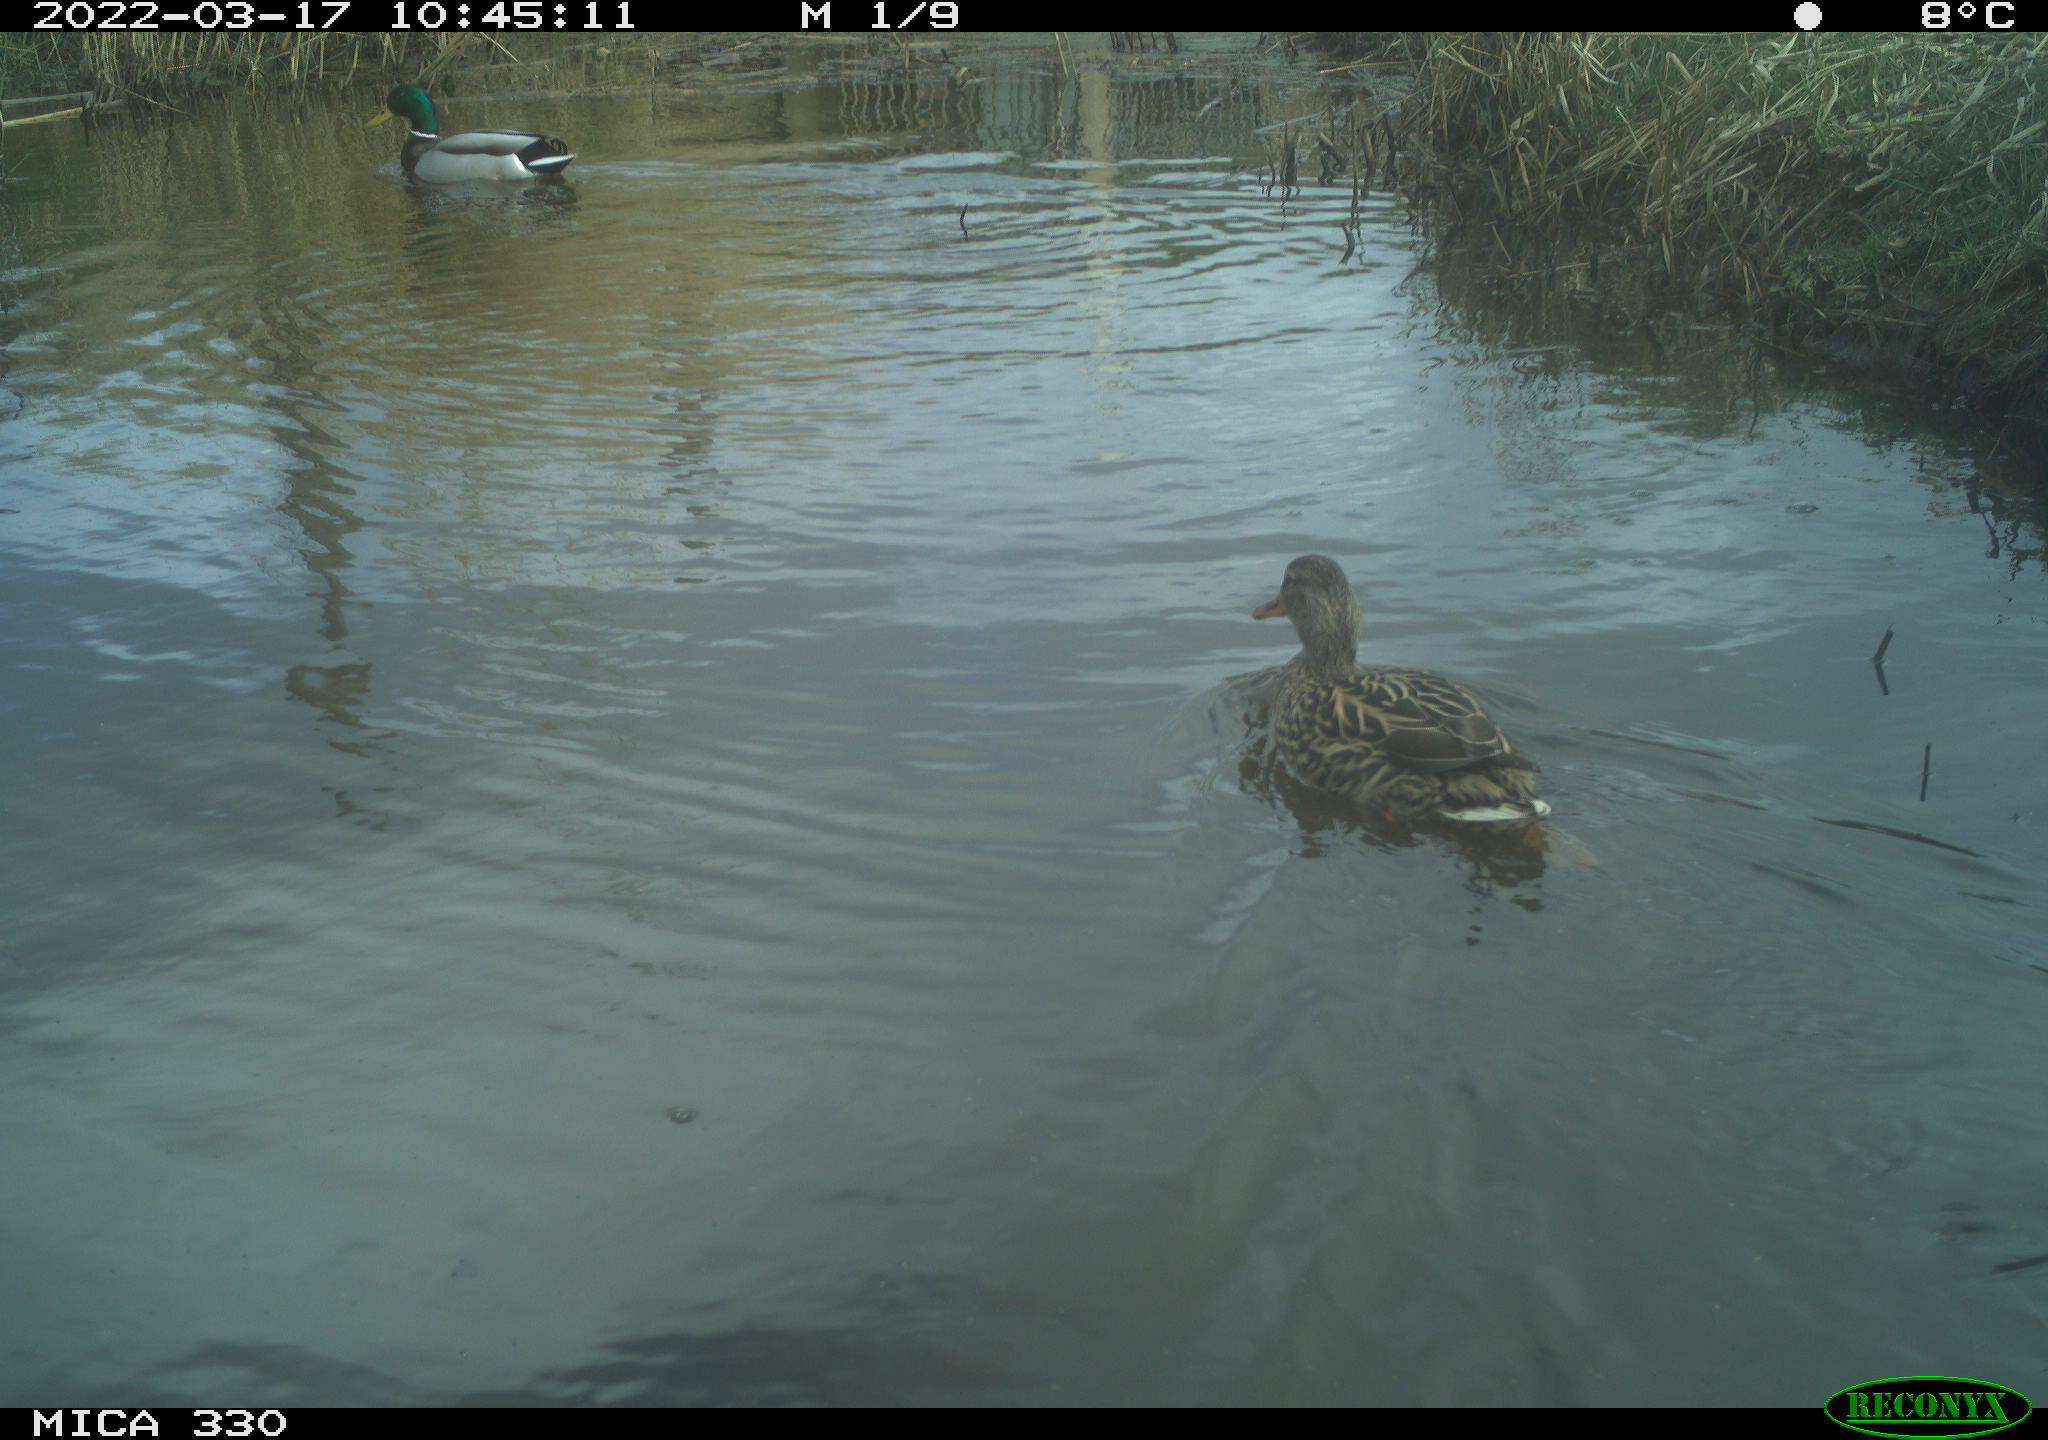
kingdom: Animalia
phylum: Chordata
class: Aves
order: Anseriformes
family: Anatidae
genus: Anas
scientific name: Anas platyrhynchos
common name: Mallard
